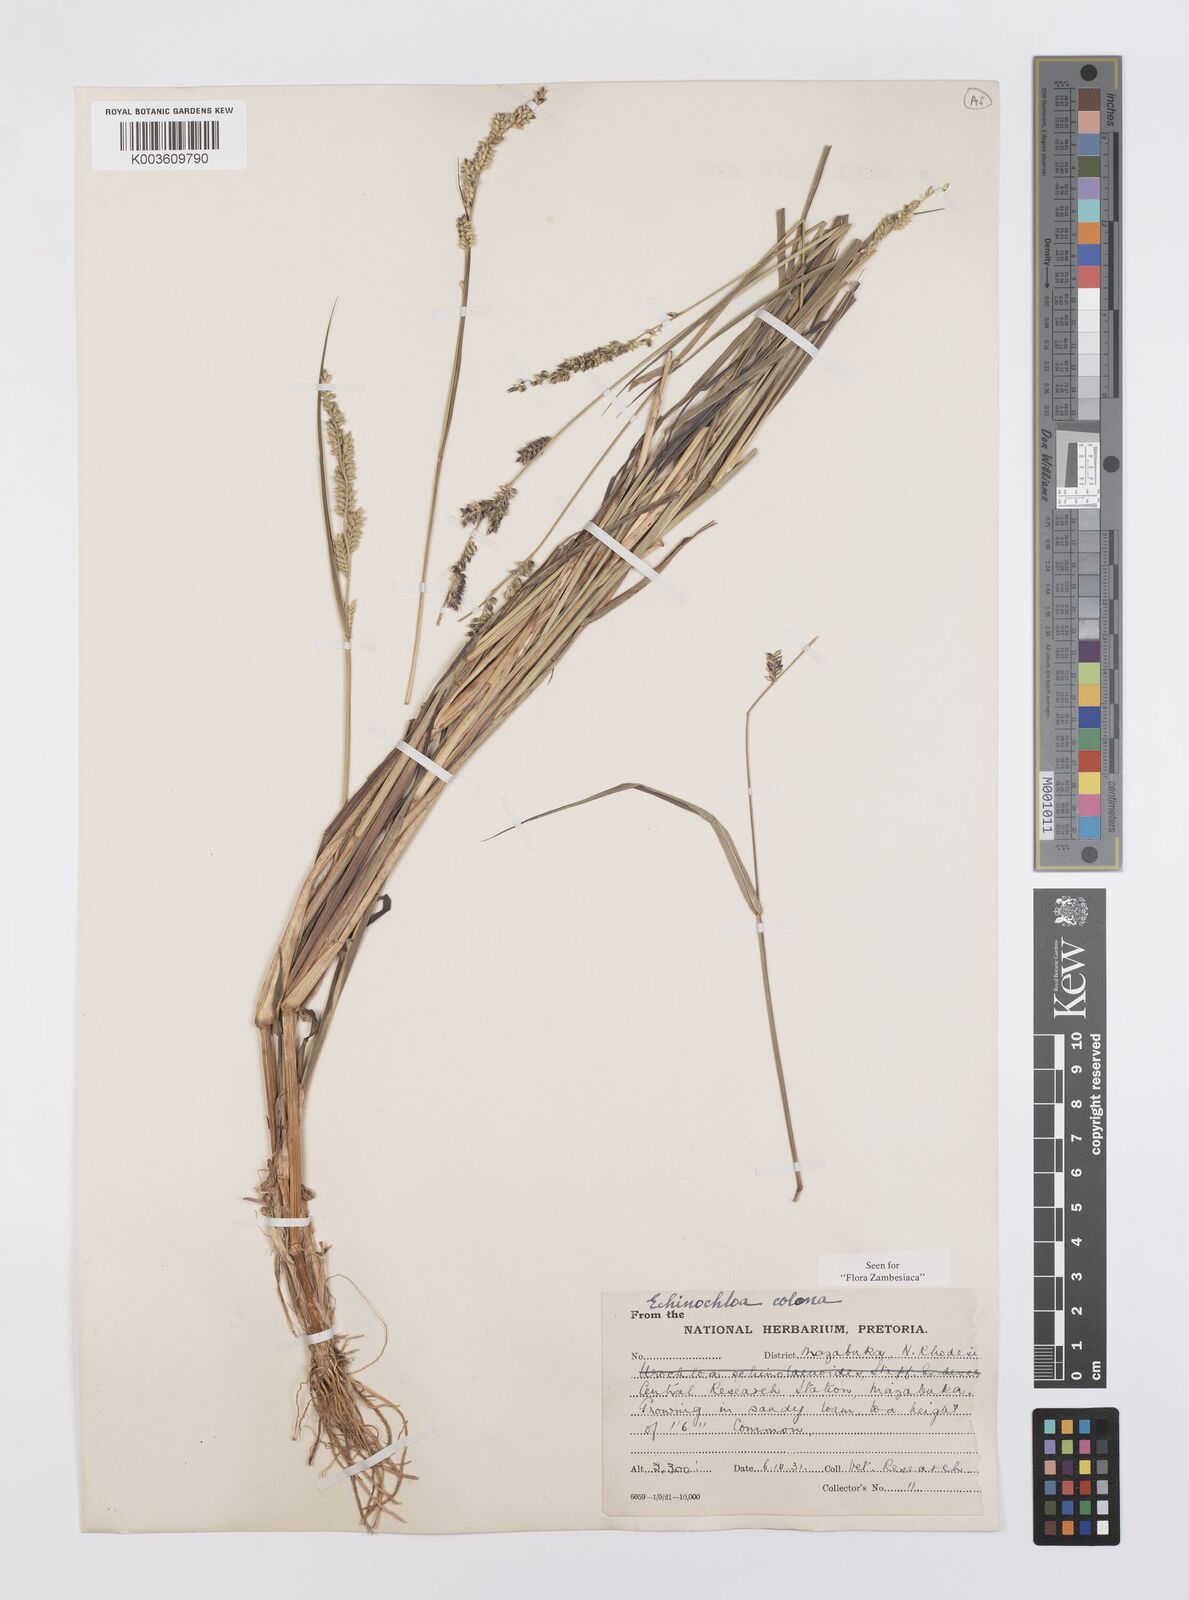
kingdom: Plantae
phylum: Tracheophyta
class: Liliopsida
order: Poales
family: Poaceae
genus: Echinochloa
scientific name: Echinochloa colonum
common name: Jungle rice
